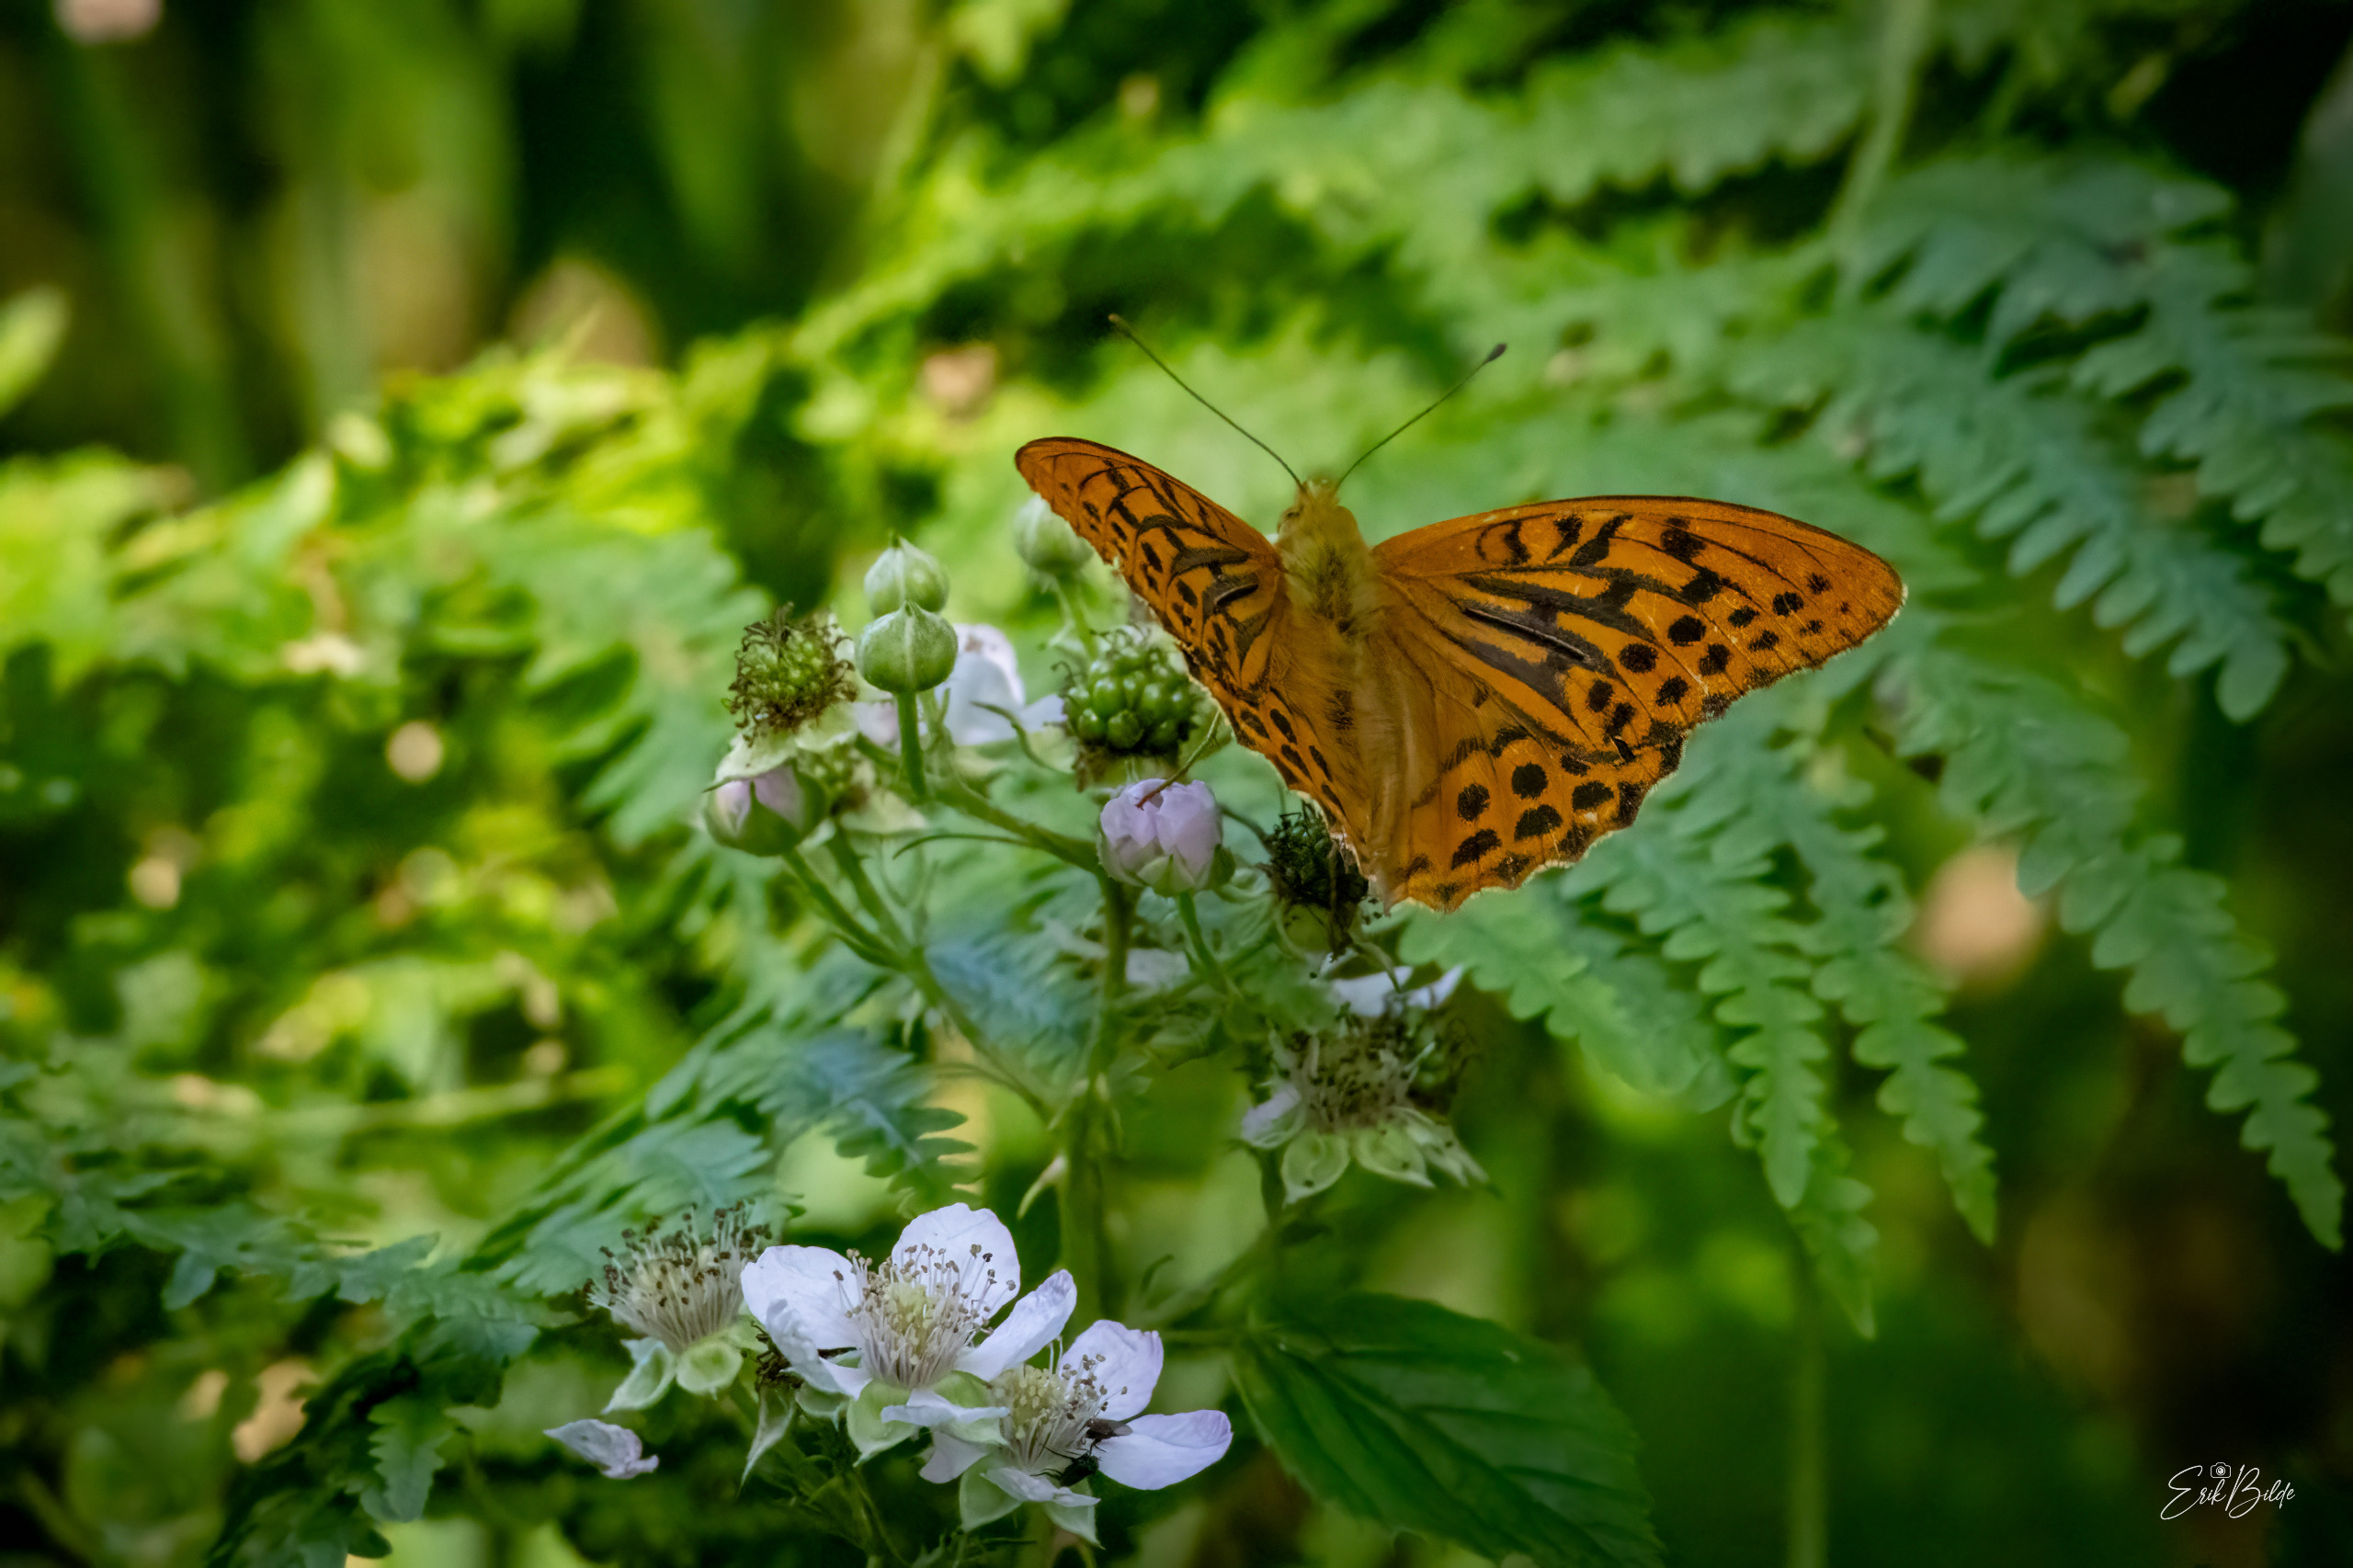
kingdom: Animalia
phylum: Arthropoda
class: Insecta
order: Lepidoptera
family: Nymphalidae
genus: Argynnis
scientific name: Argynnis paphia
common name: Kejserkåbe
